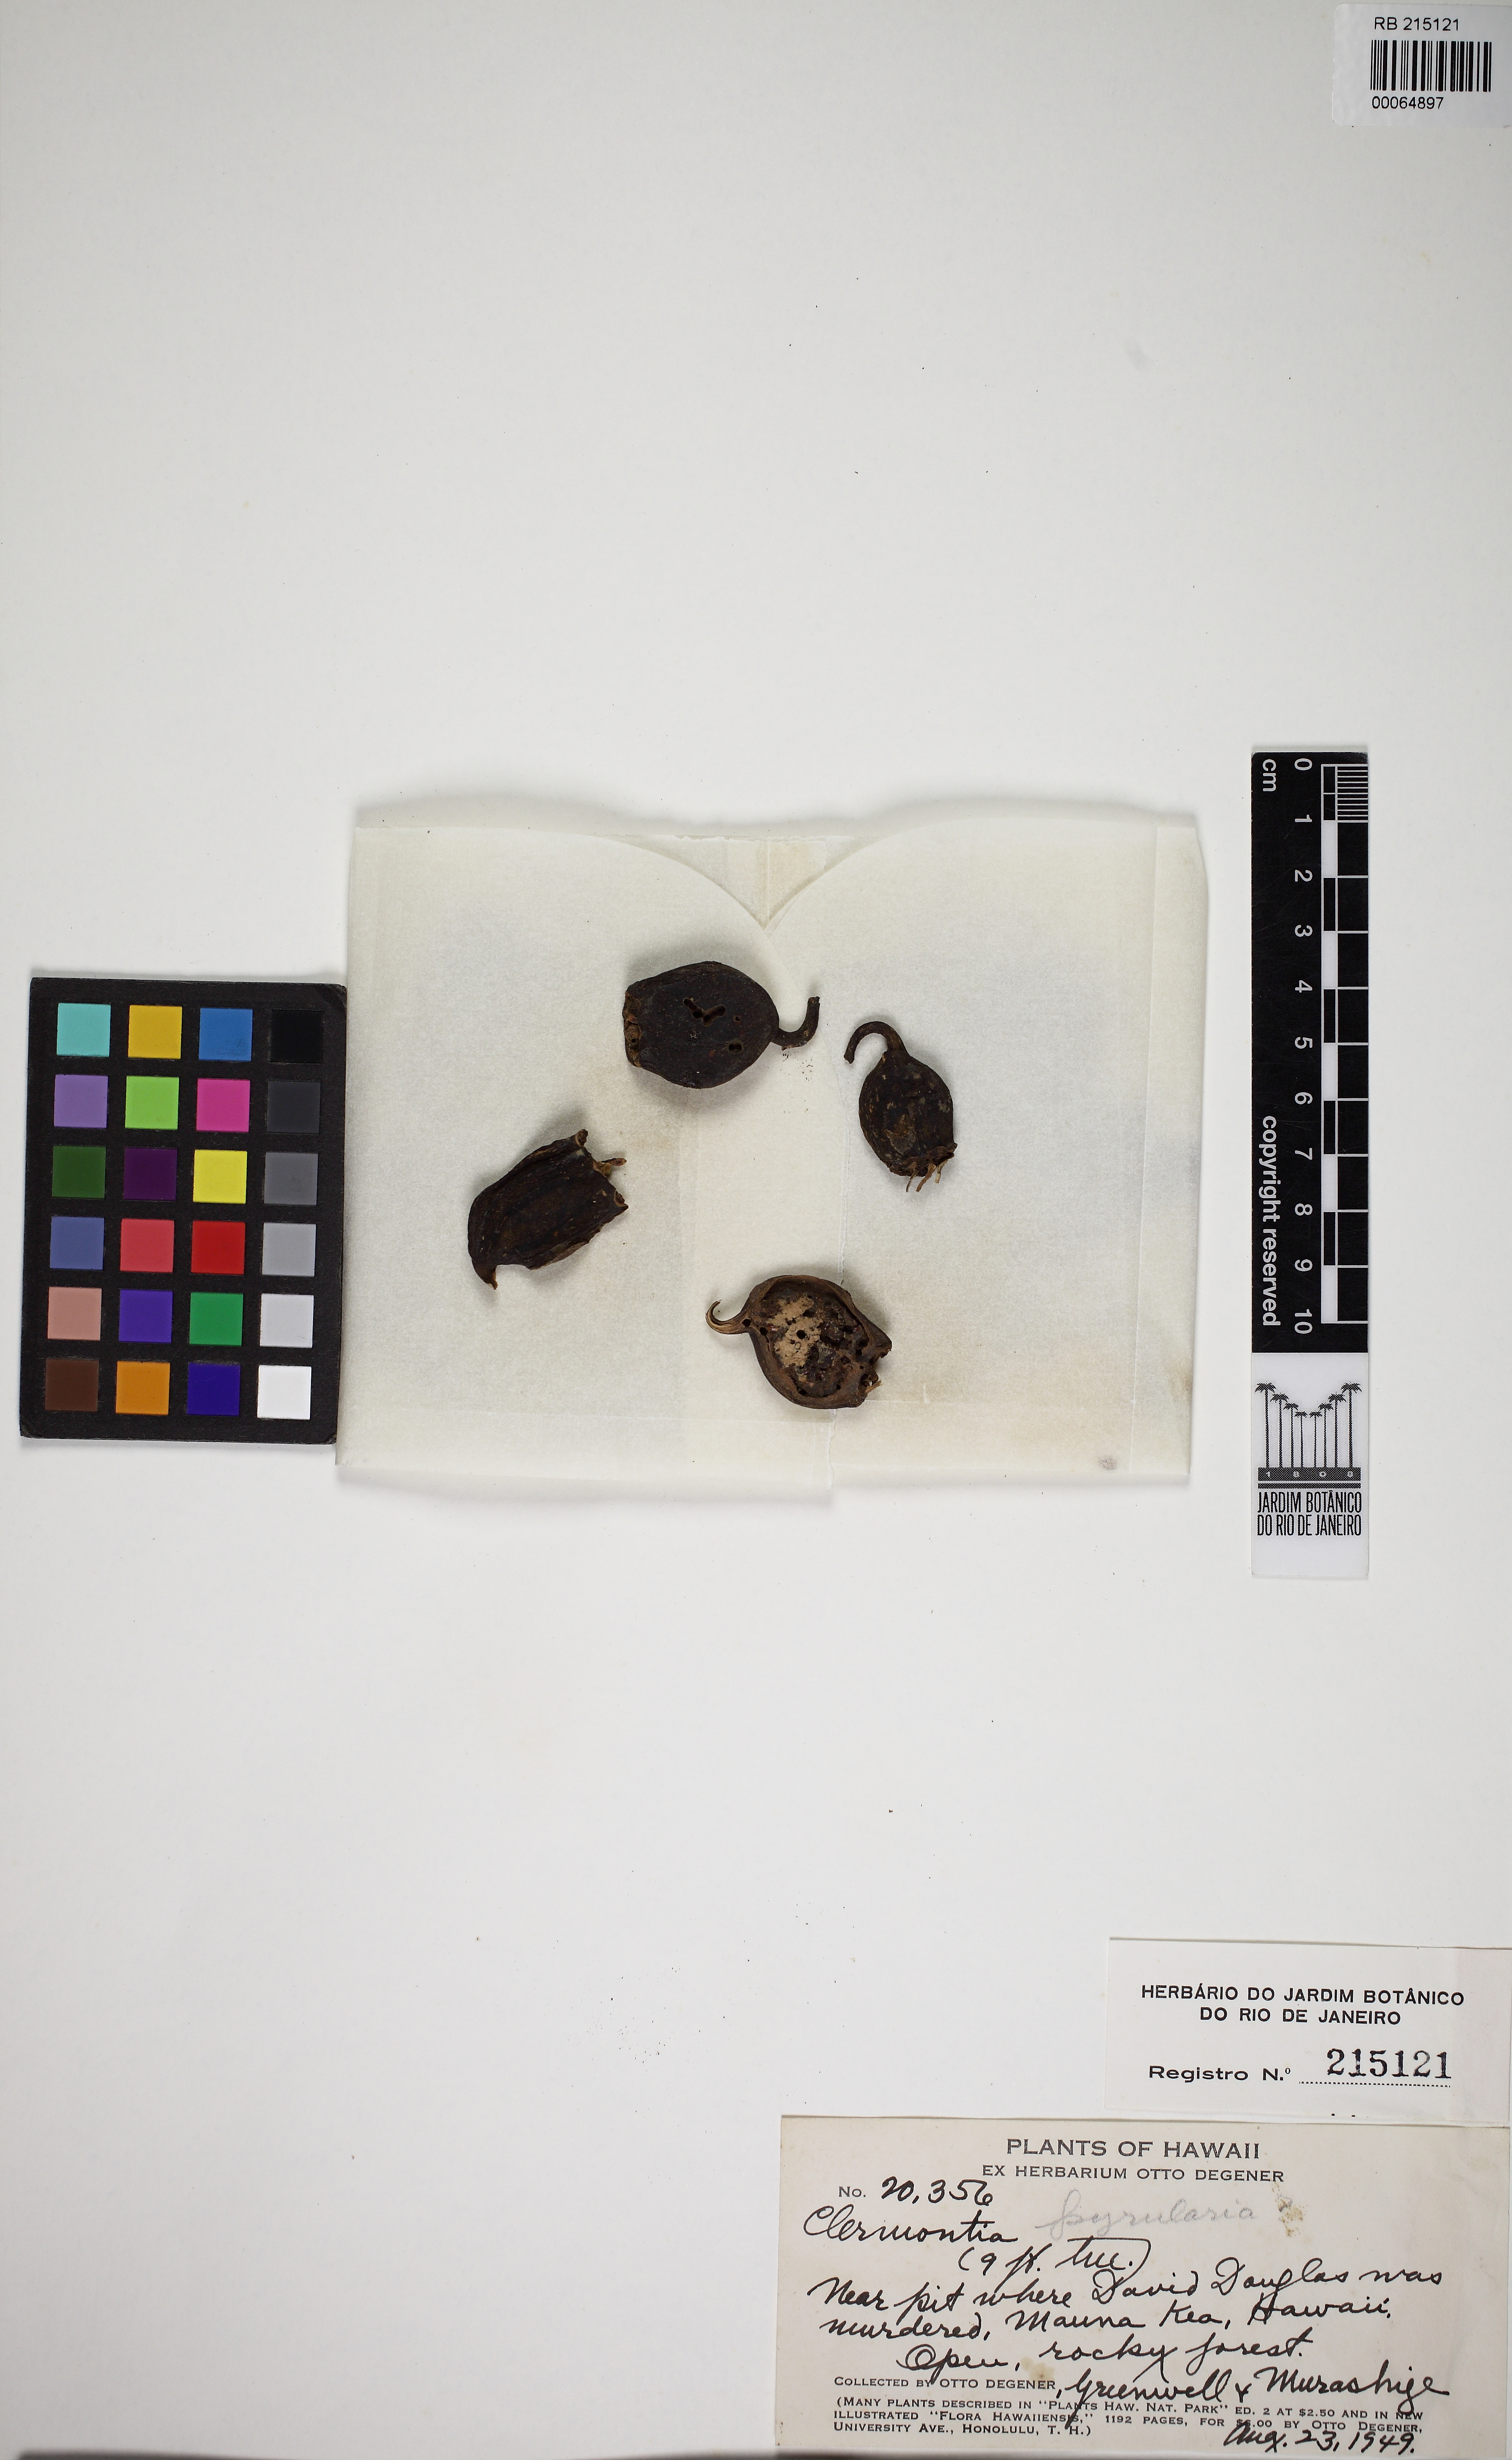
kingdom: Plantae
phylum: Tracheophyta
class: Magnoliopsida
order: Asterales
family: Campanulaceae
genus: Clermontia
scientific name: Clermontia
